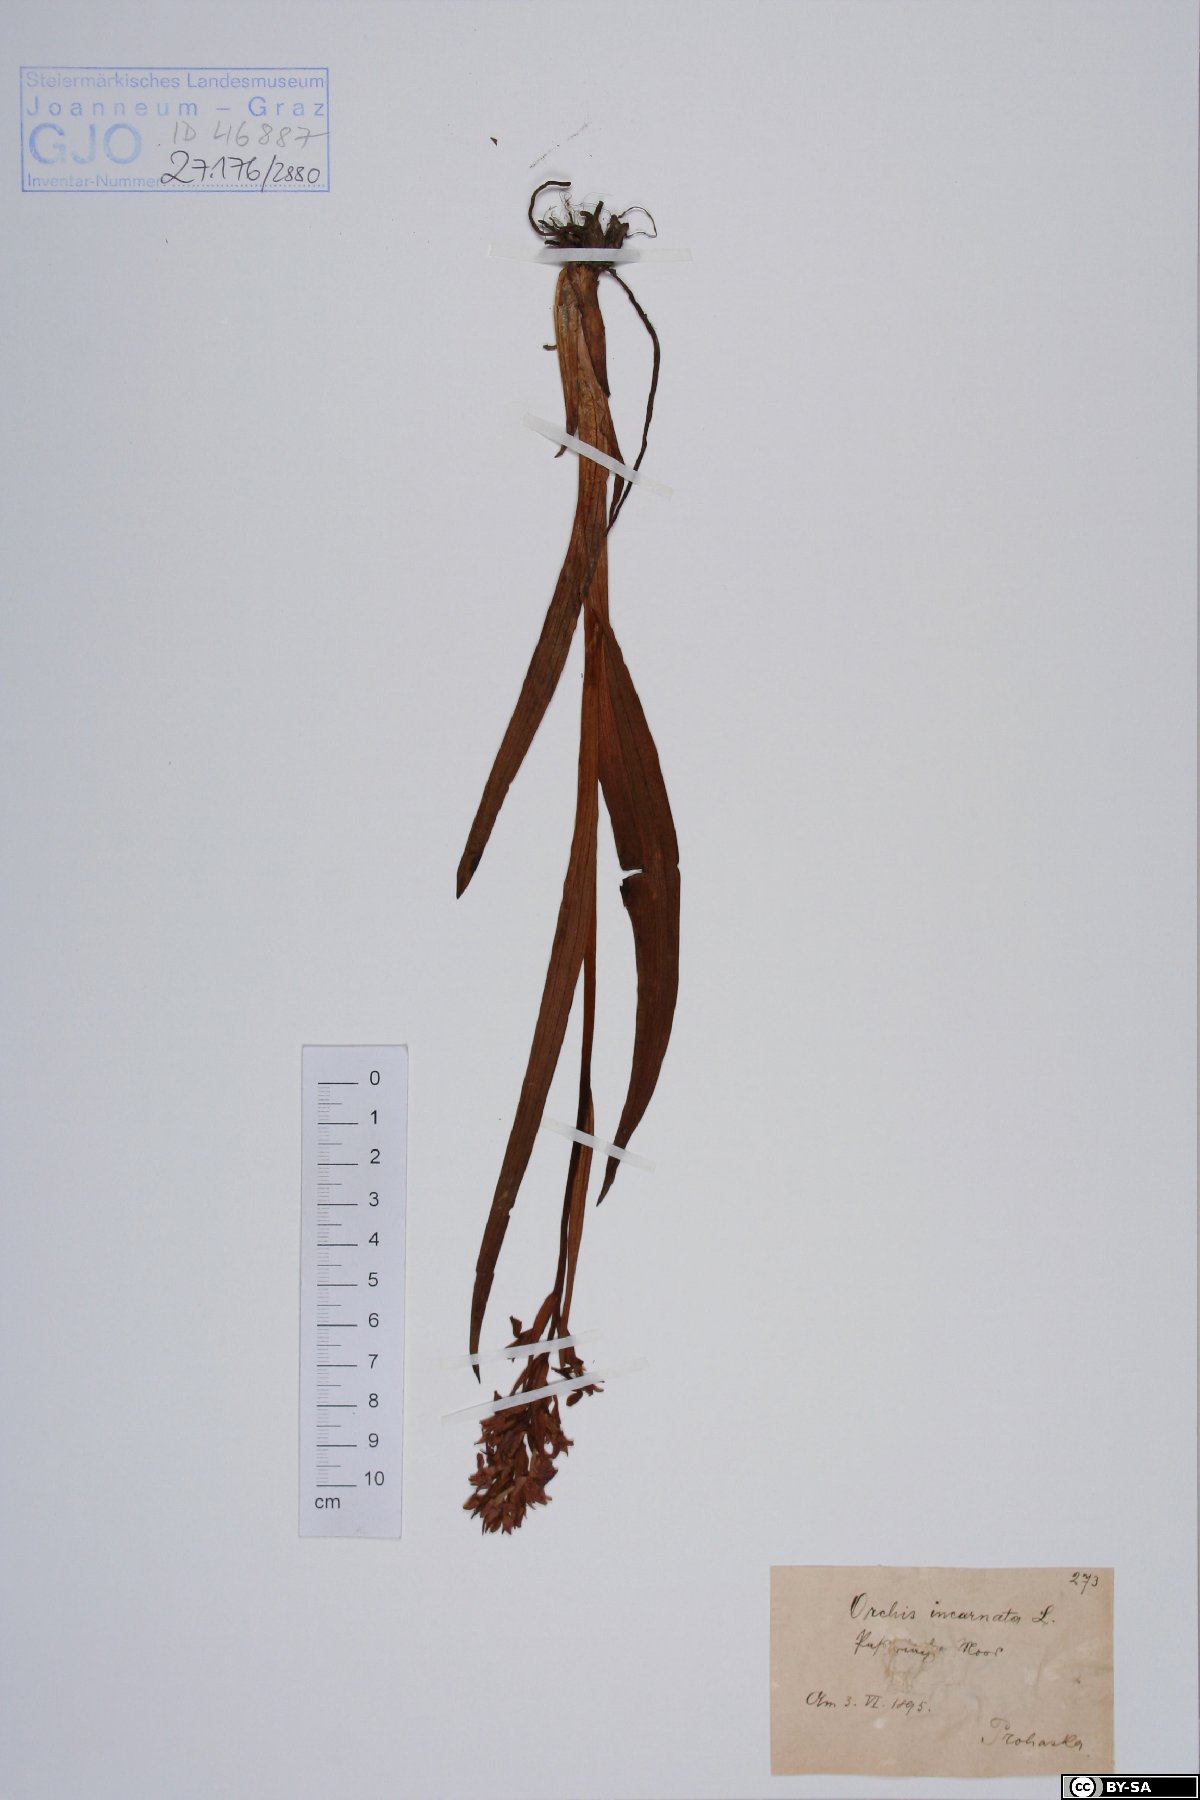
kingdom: Plantae
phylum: Tracheophyta
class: Liliopsida
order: Asparagales
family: Orchidaceae
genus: Dactylorhiza
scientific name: Dactylorhiza incarnata
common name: Early marsh-orchid
